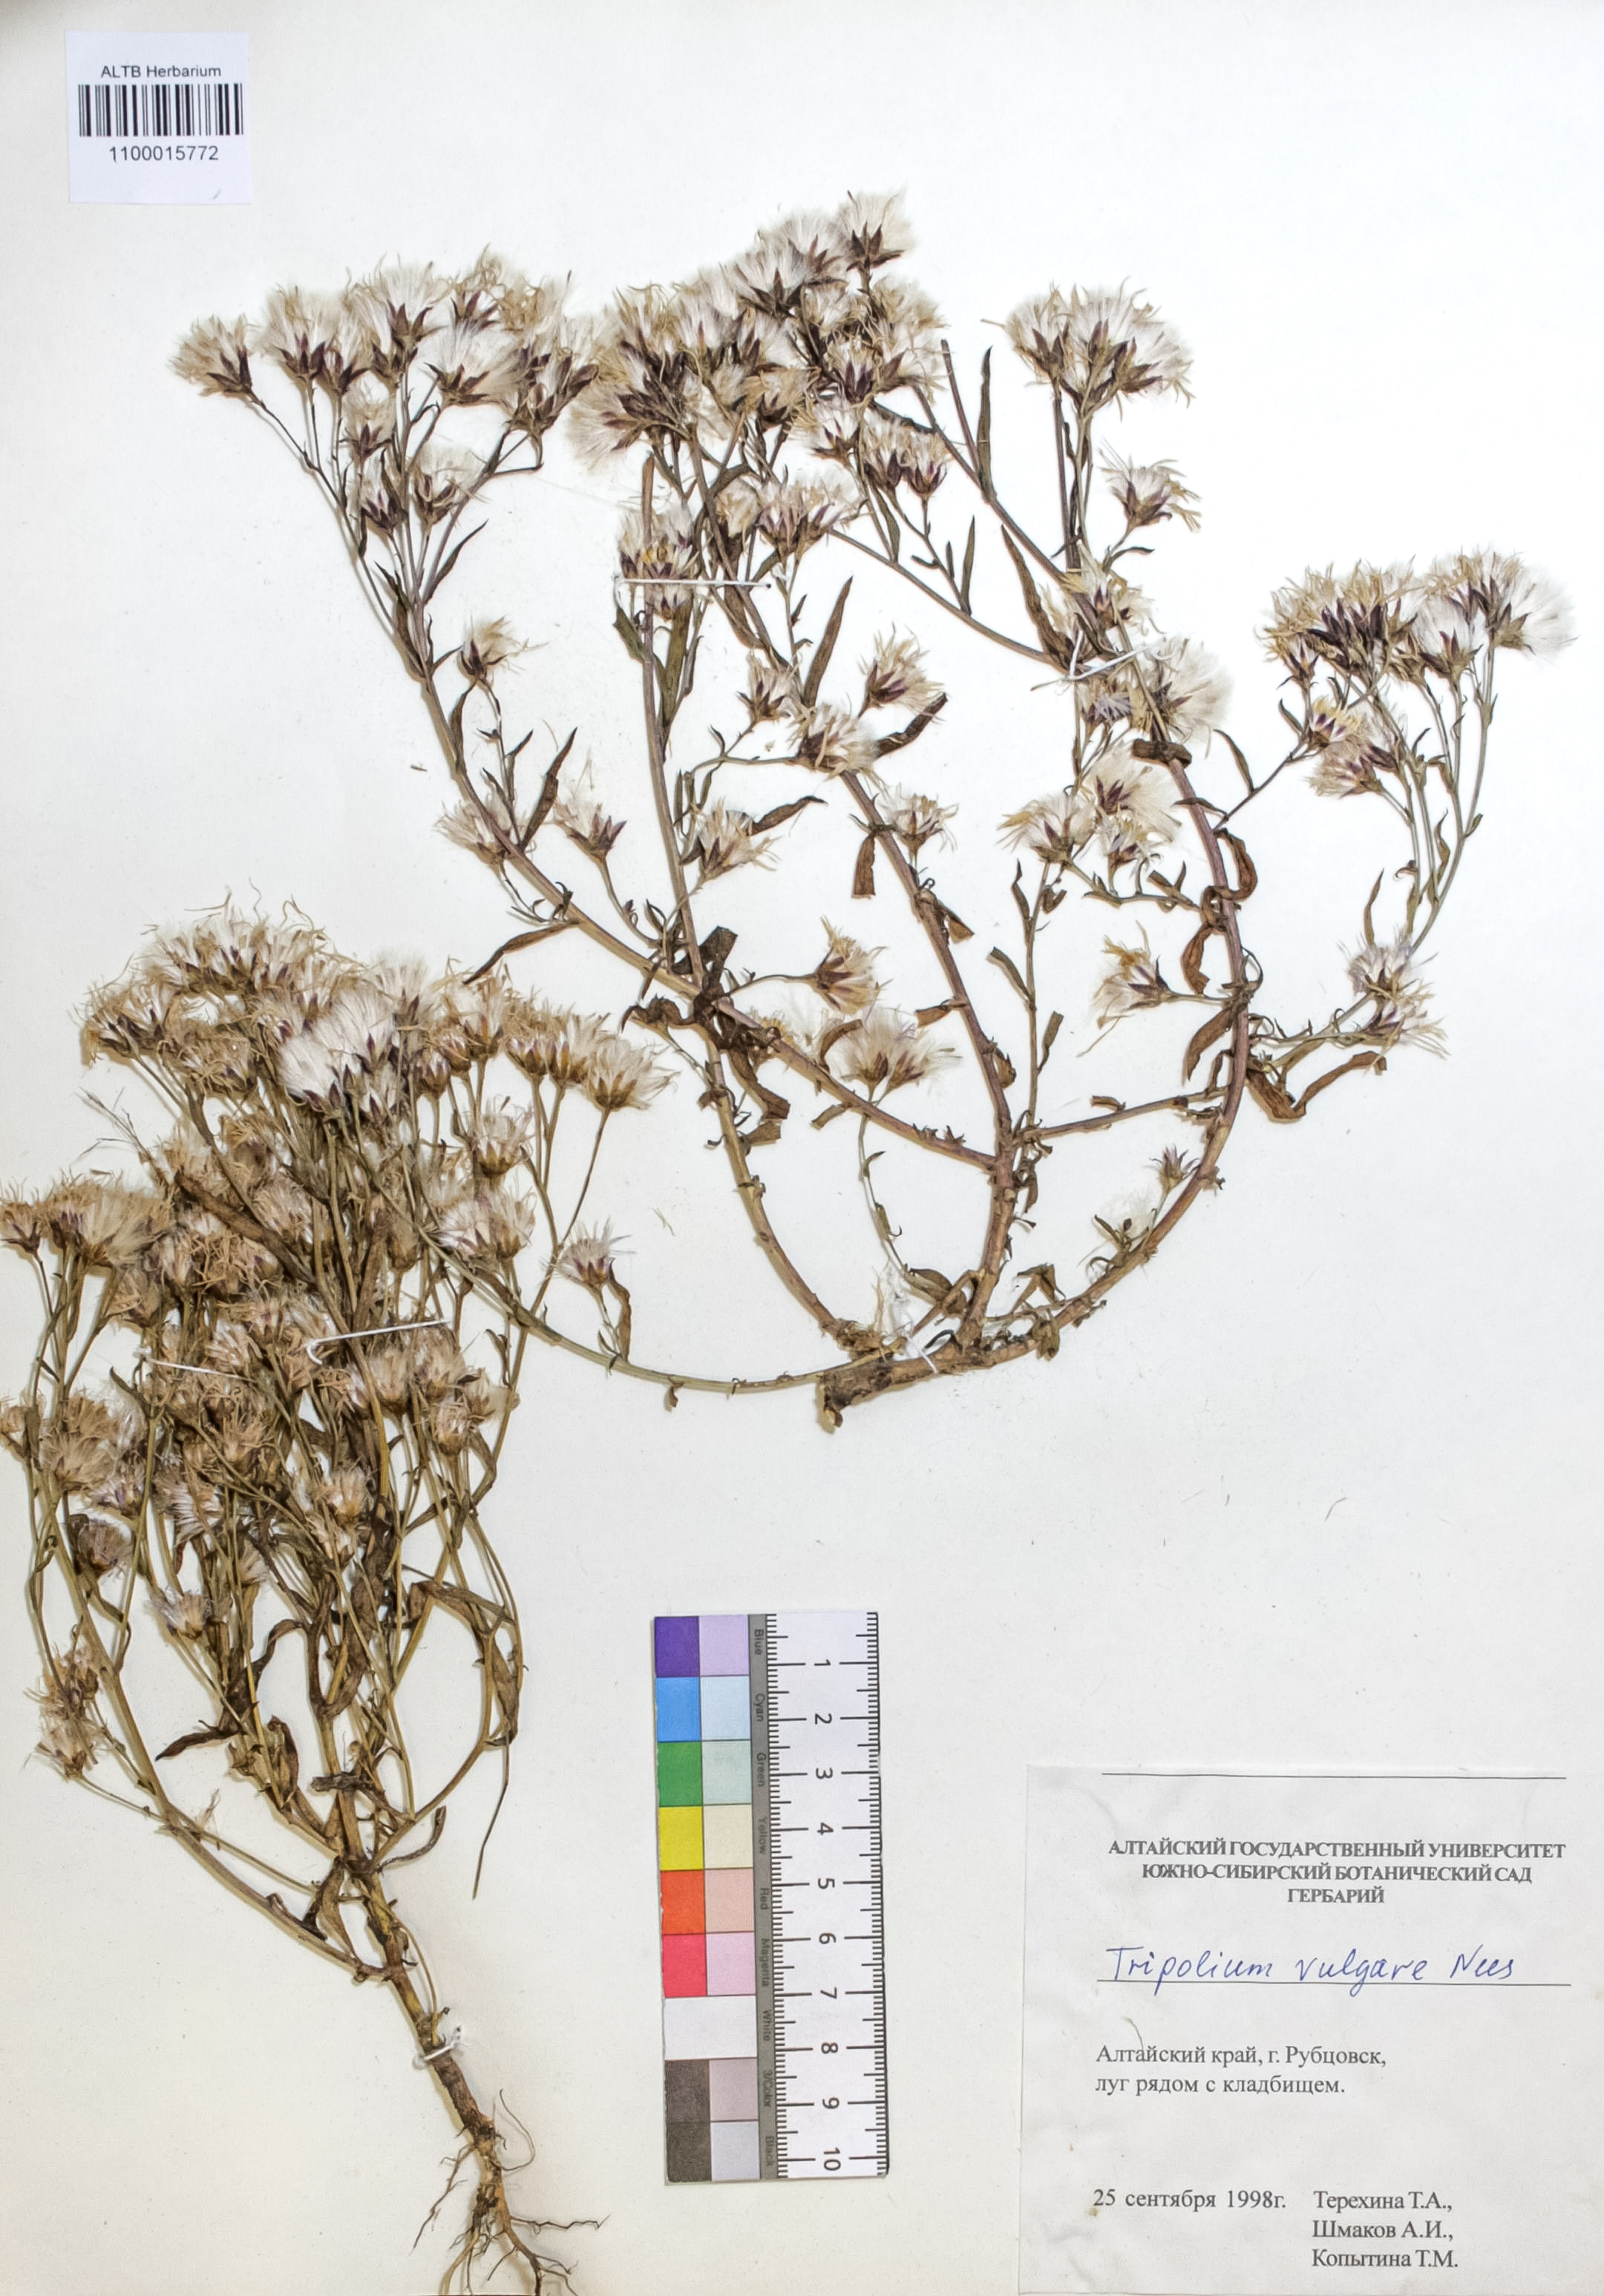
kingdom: Plantae
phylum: Tracheophyta
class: Magnoliopsida
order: Asterales
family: Asteraceae
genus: Tripolium
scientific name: Tripolium pannonicum
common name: Sea aster
